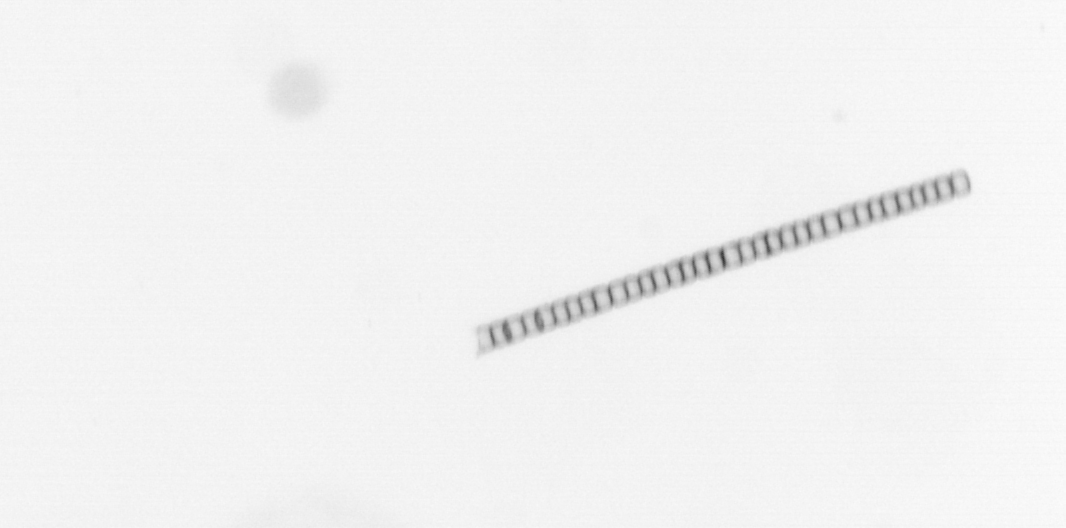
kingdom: Chromista
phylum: Ochrophyta
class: Bacillariophyceae
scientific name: Bacillariophyceae
